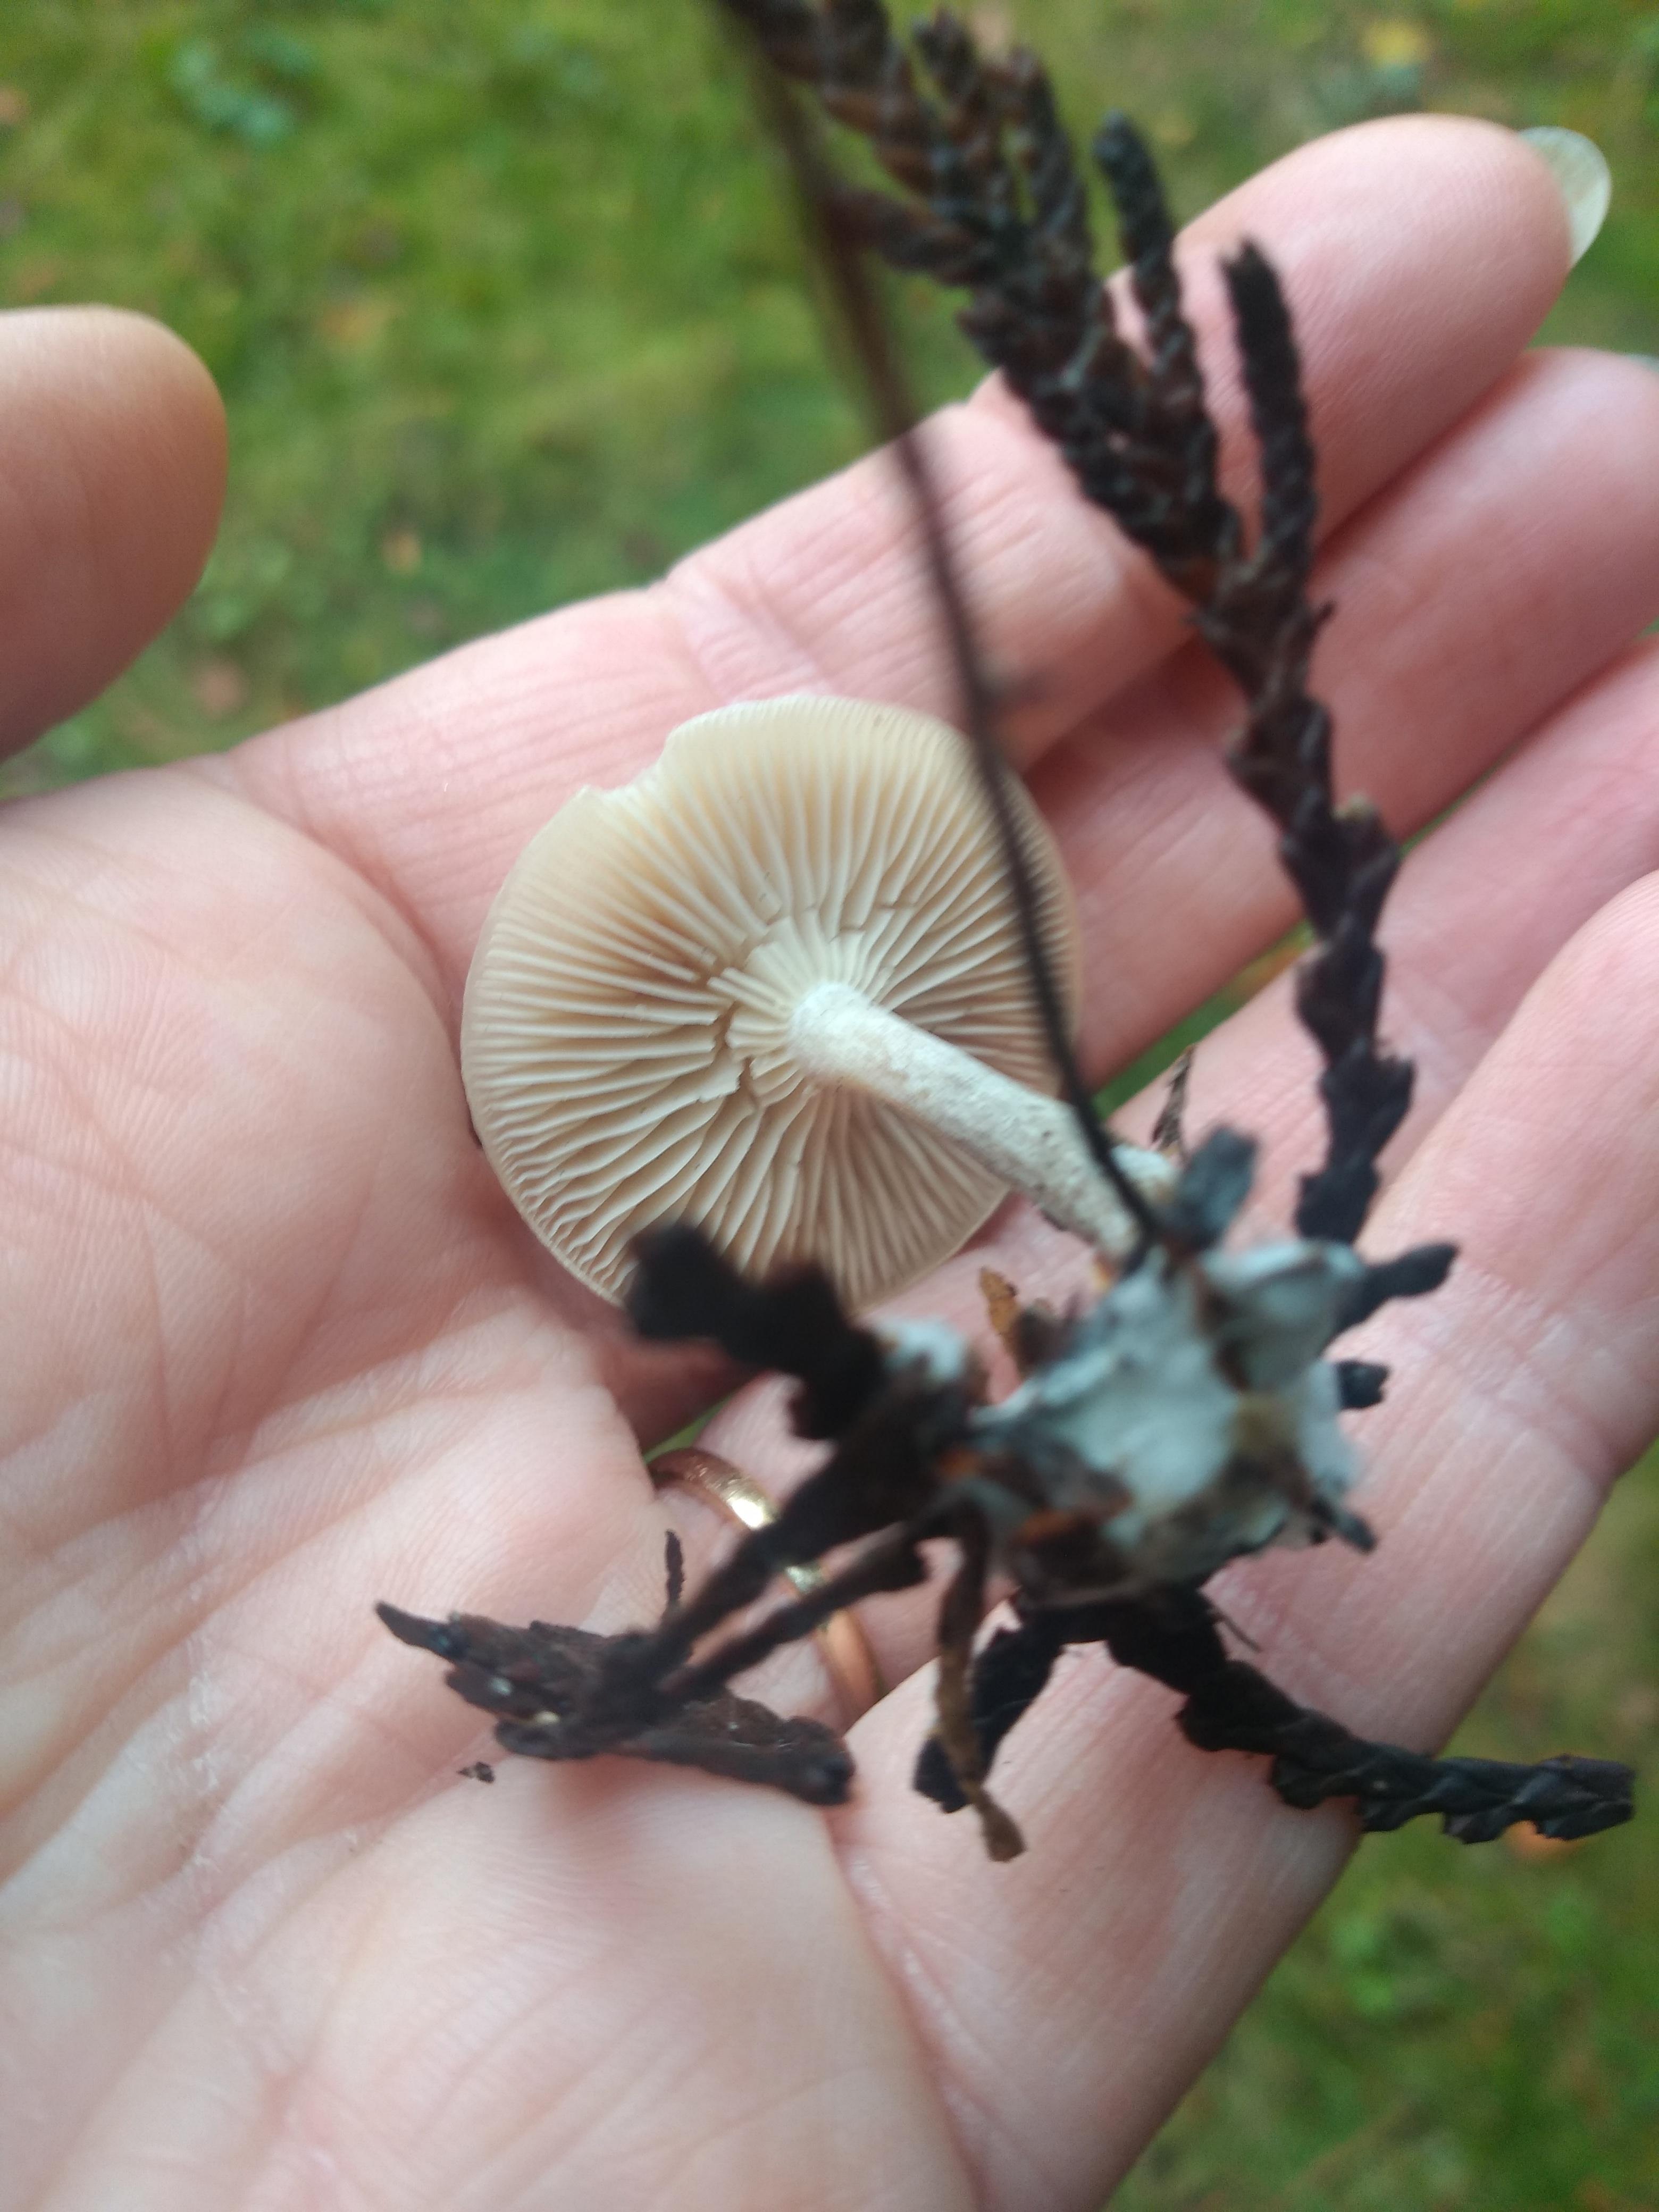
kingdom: Fungi
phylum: Basidiomycota
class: Agaricomycetes
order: Agaricales
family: Tricholomataceae
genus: Clitocybe
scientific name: Clitocybe
